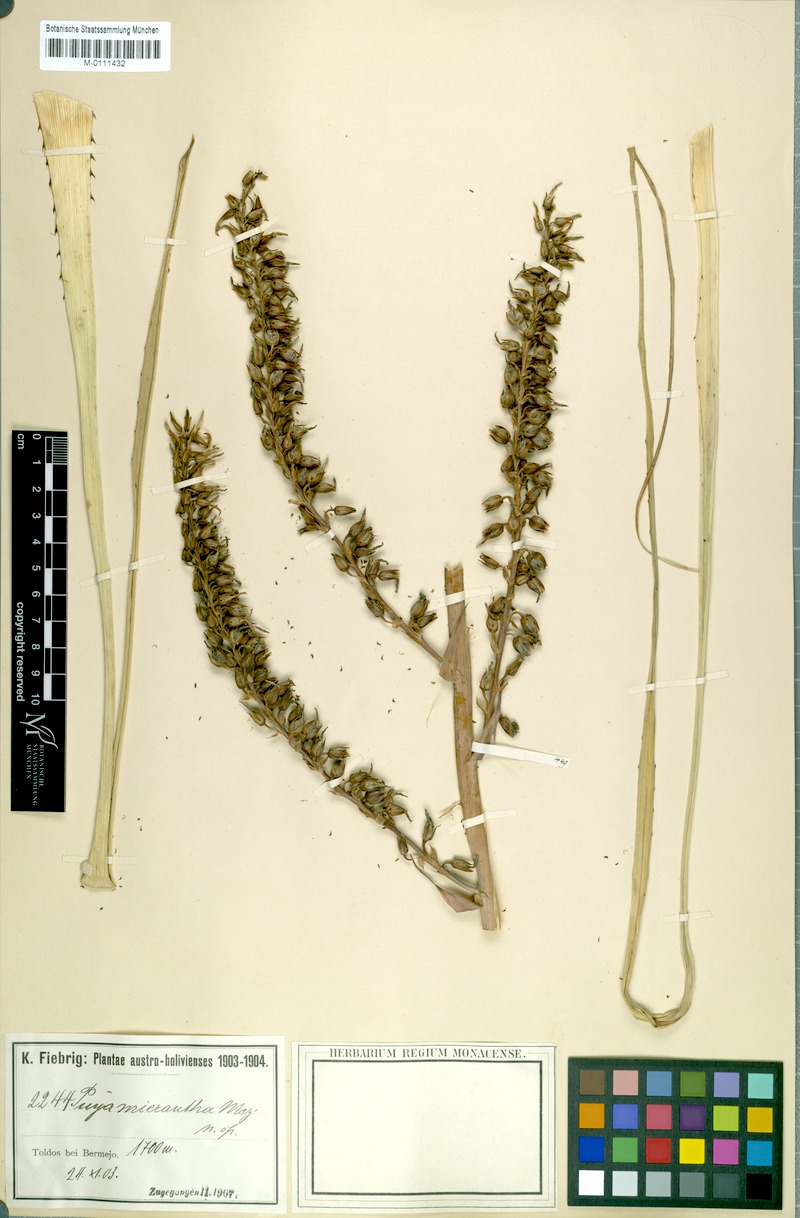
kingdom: Plantae
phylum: Tracheophyta
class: Liliopsida
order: Poales
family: Bromeliaceae
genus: Puya
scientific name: Puya micrantha
